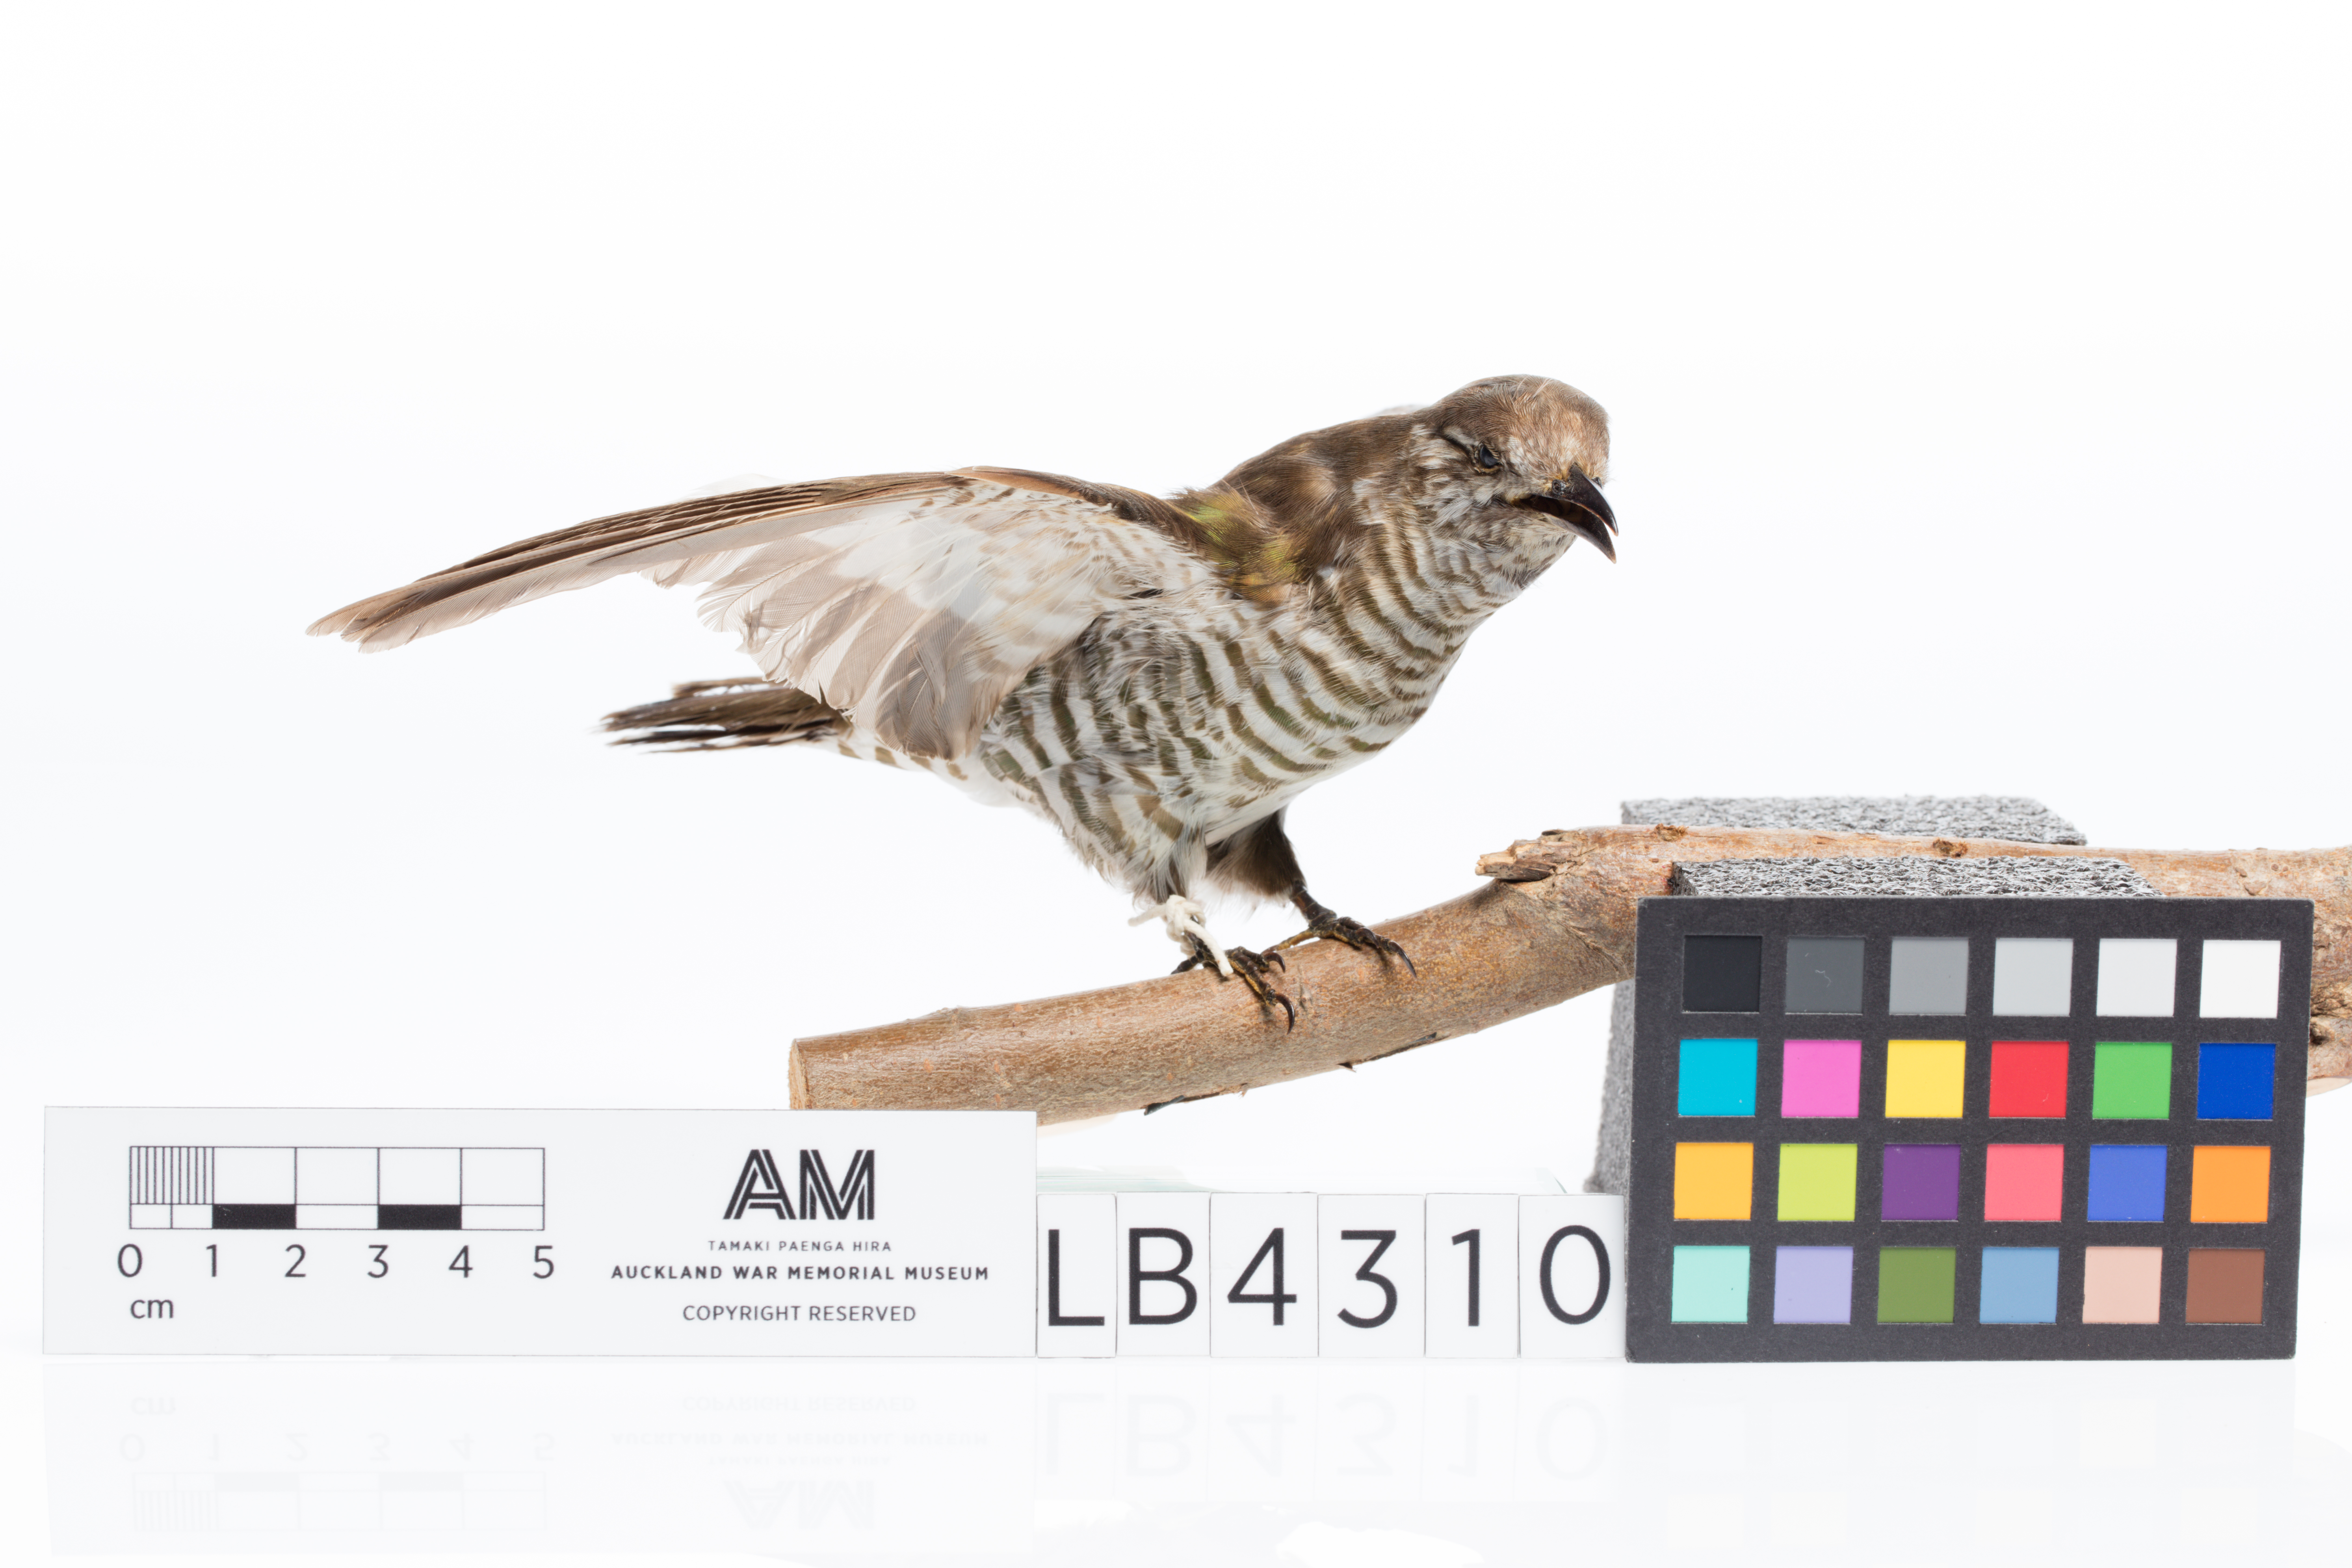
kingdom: Animalia
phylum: Chordata
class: Aves
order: Cuculiformes
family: Cuculidae
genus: Chrysococcyx
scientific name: Chrysococcyx lucidus
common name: Shining bronze cuckoo
